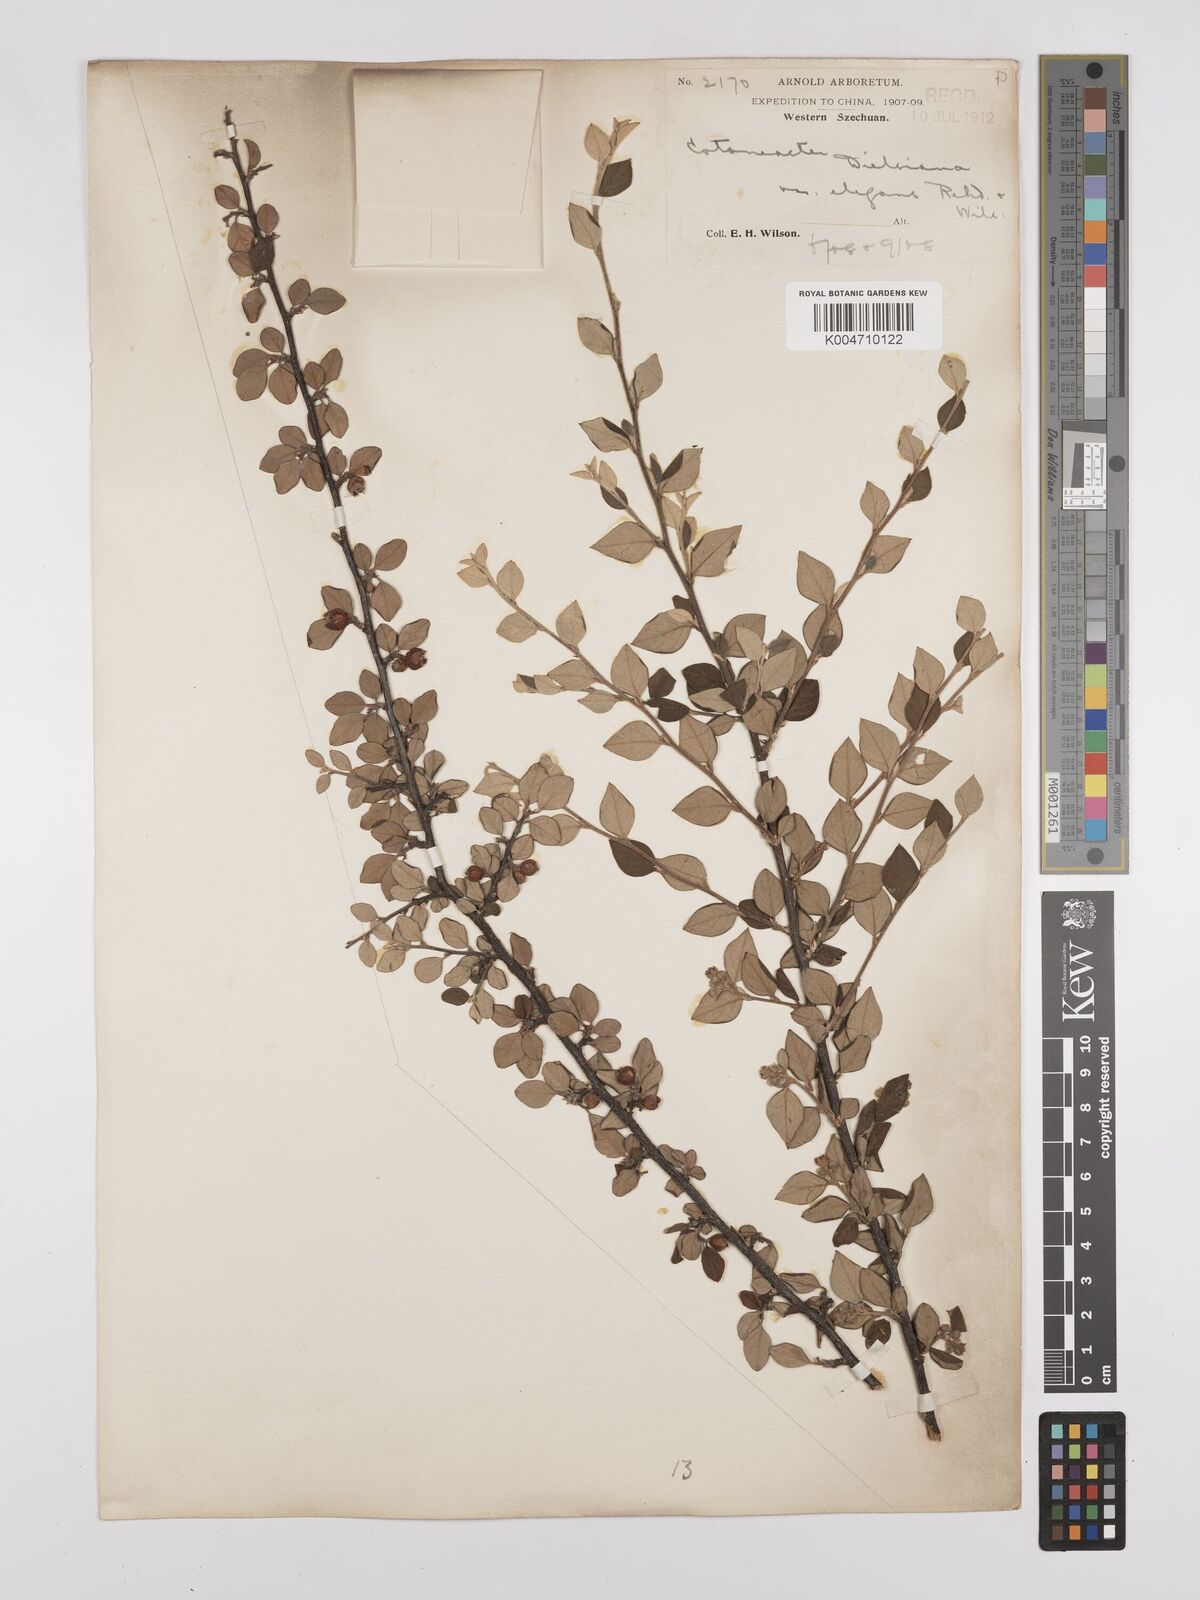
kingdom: Plantae
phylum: Tracheophyta
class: Magnoliopsida
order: Rosales
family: Rosaceae
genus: Cotoneaster
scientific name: Cotoneaster dielsianus
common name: Diels's cotoneaster
